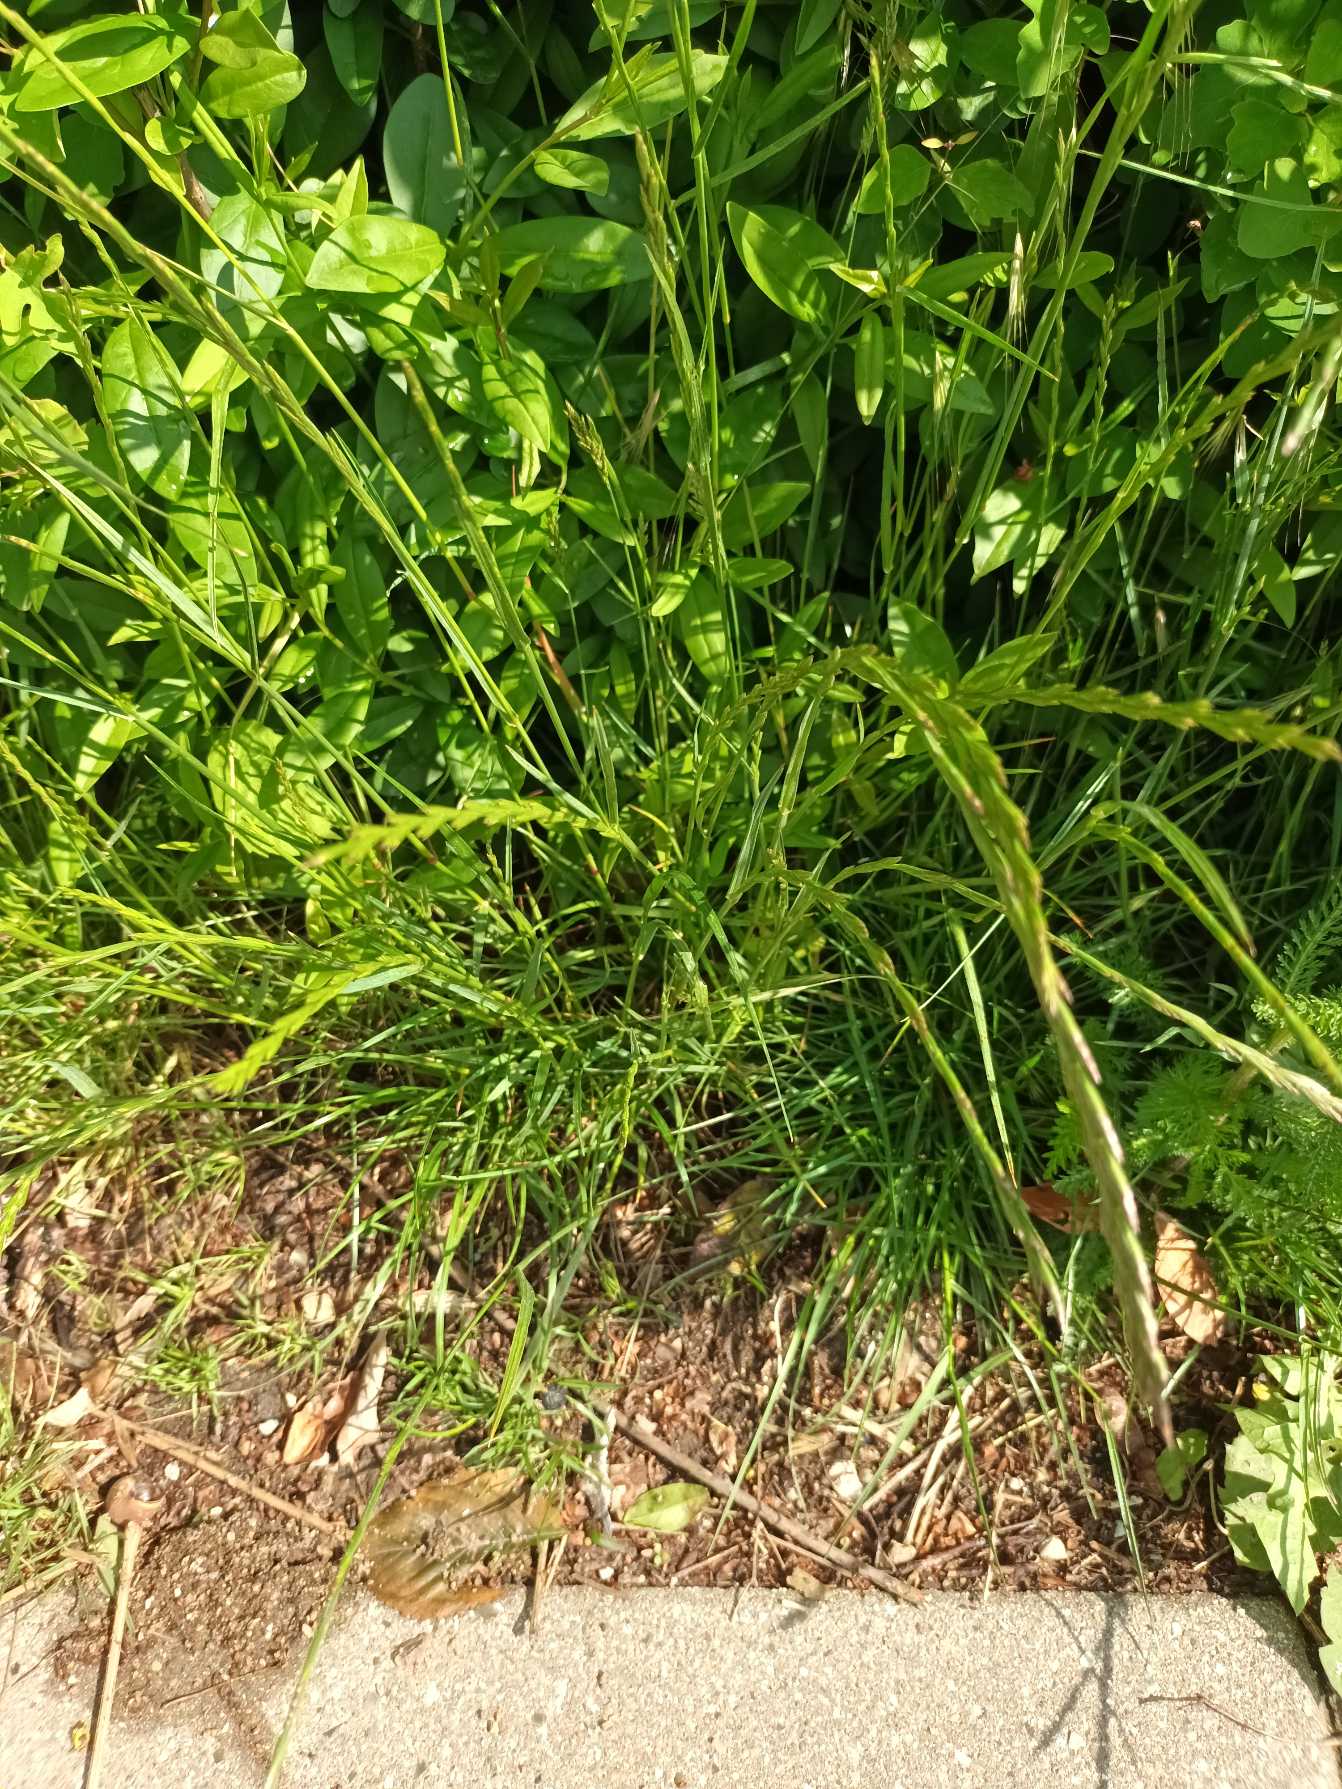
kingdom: Plantae
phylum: Tracheophyta
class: Liliopsida
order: Poales
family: Poaceae
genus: Lolium
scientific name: Lolium perenne
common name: Almindelig rajgræs
